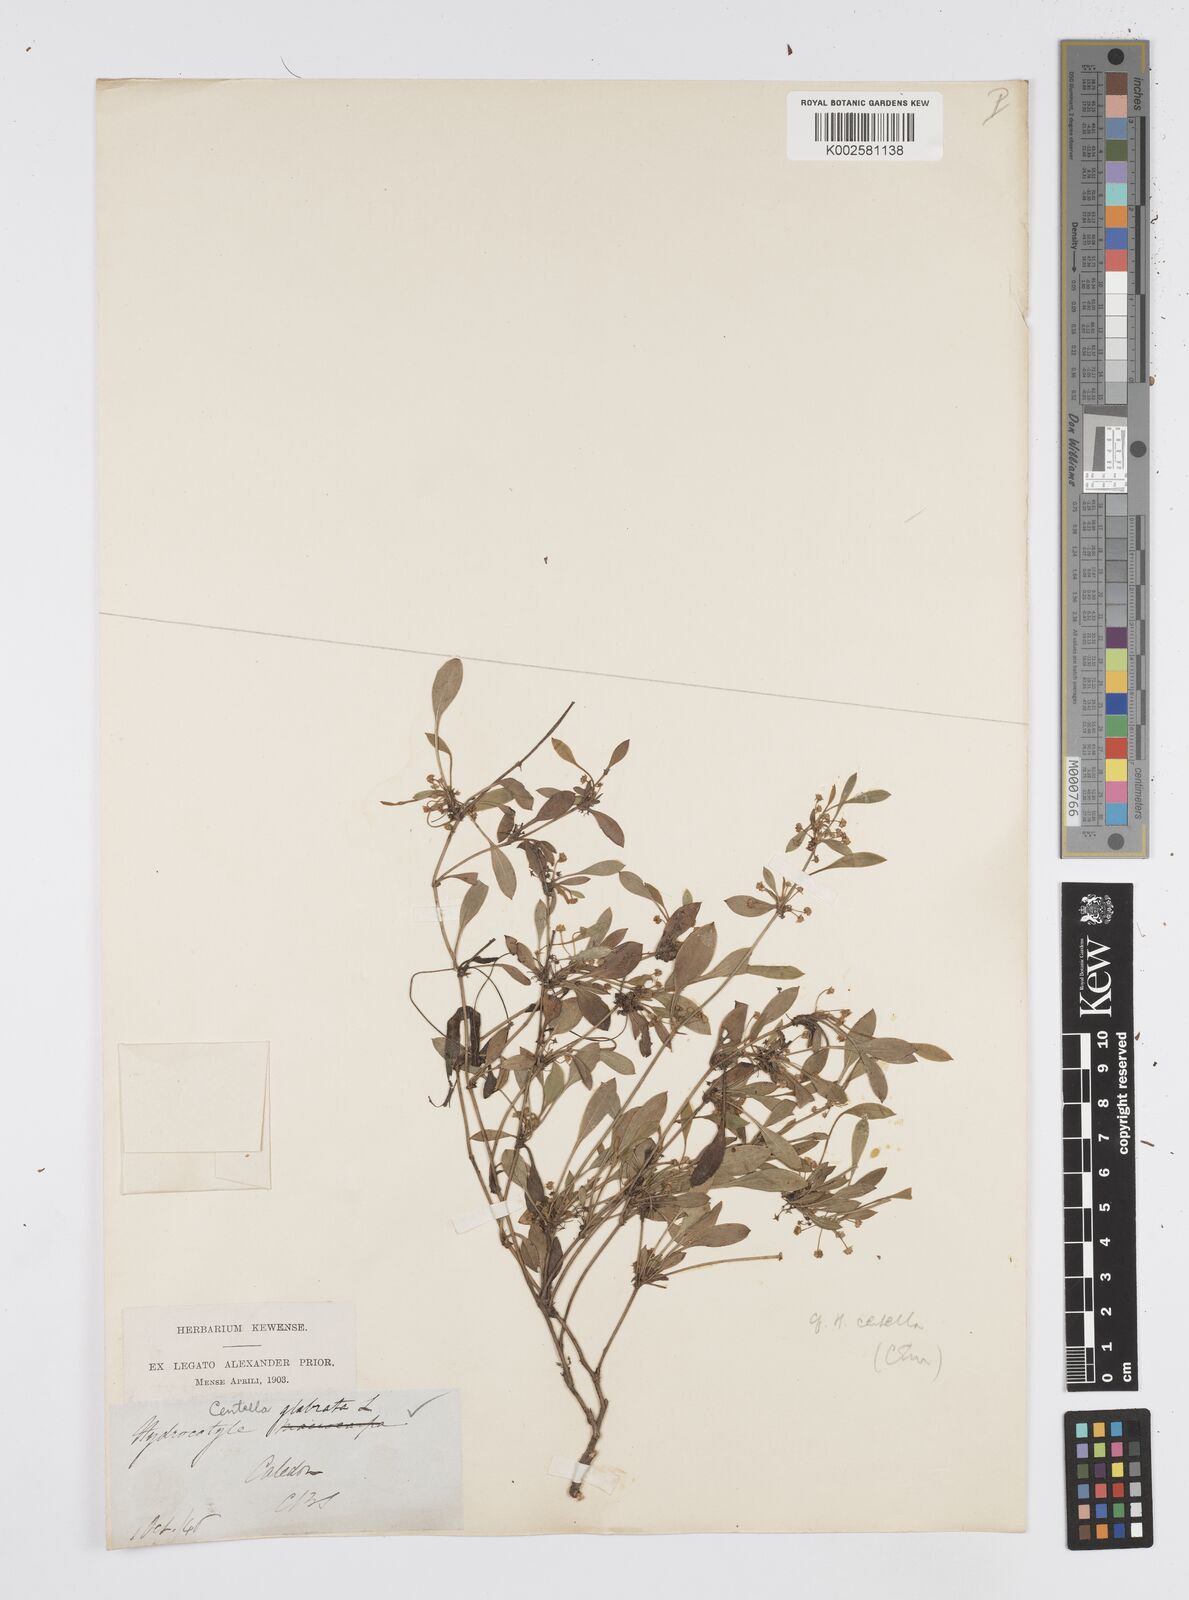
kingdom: Plantae
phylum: Tracheophyta
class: Magnoliopsida
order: Apiales
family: Apiaceae
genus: Centella
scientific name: Centella glabrata
